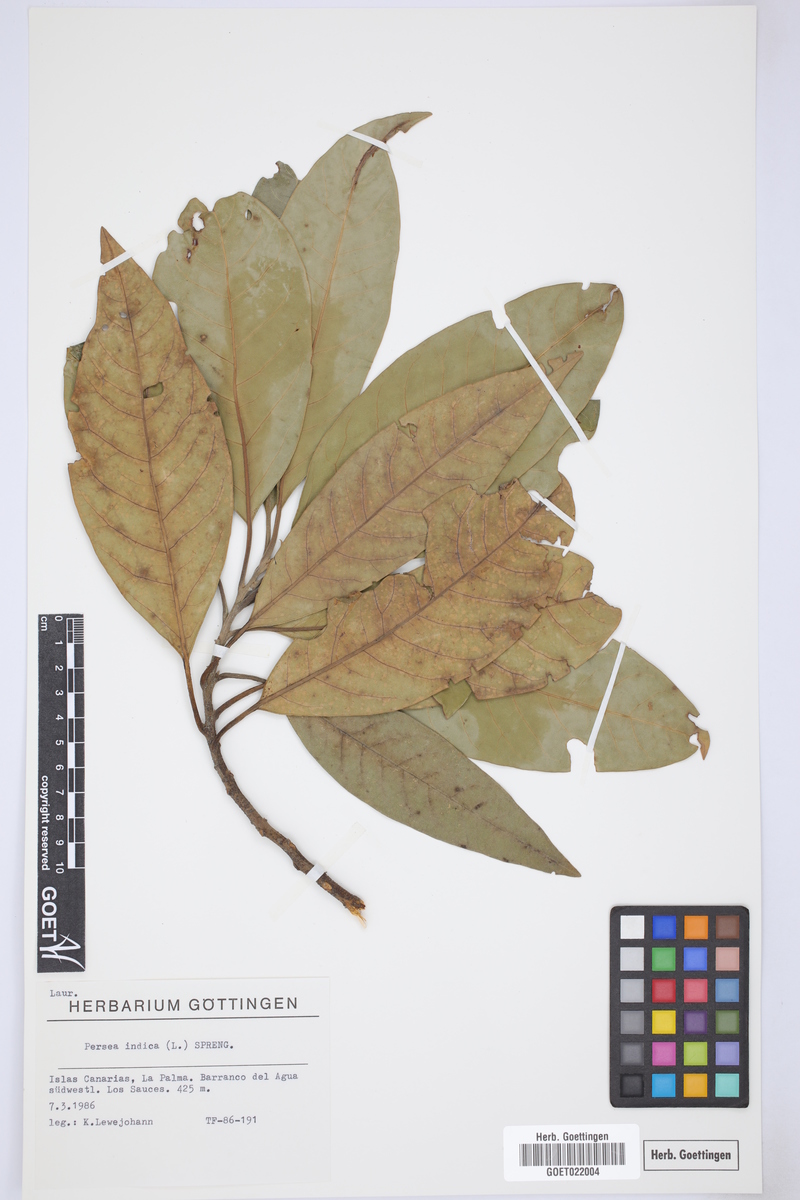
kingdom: Plantae
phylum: Tracheophyta
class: Magnoliopsida
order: Laurales
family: Lauraceae
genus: Persea
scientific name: Persea indica
